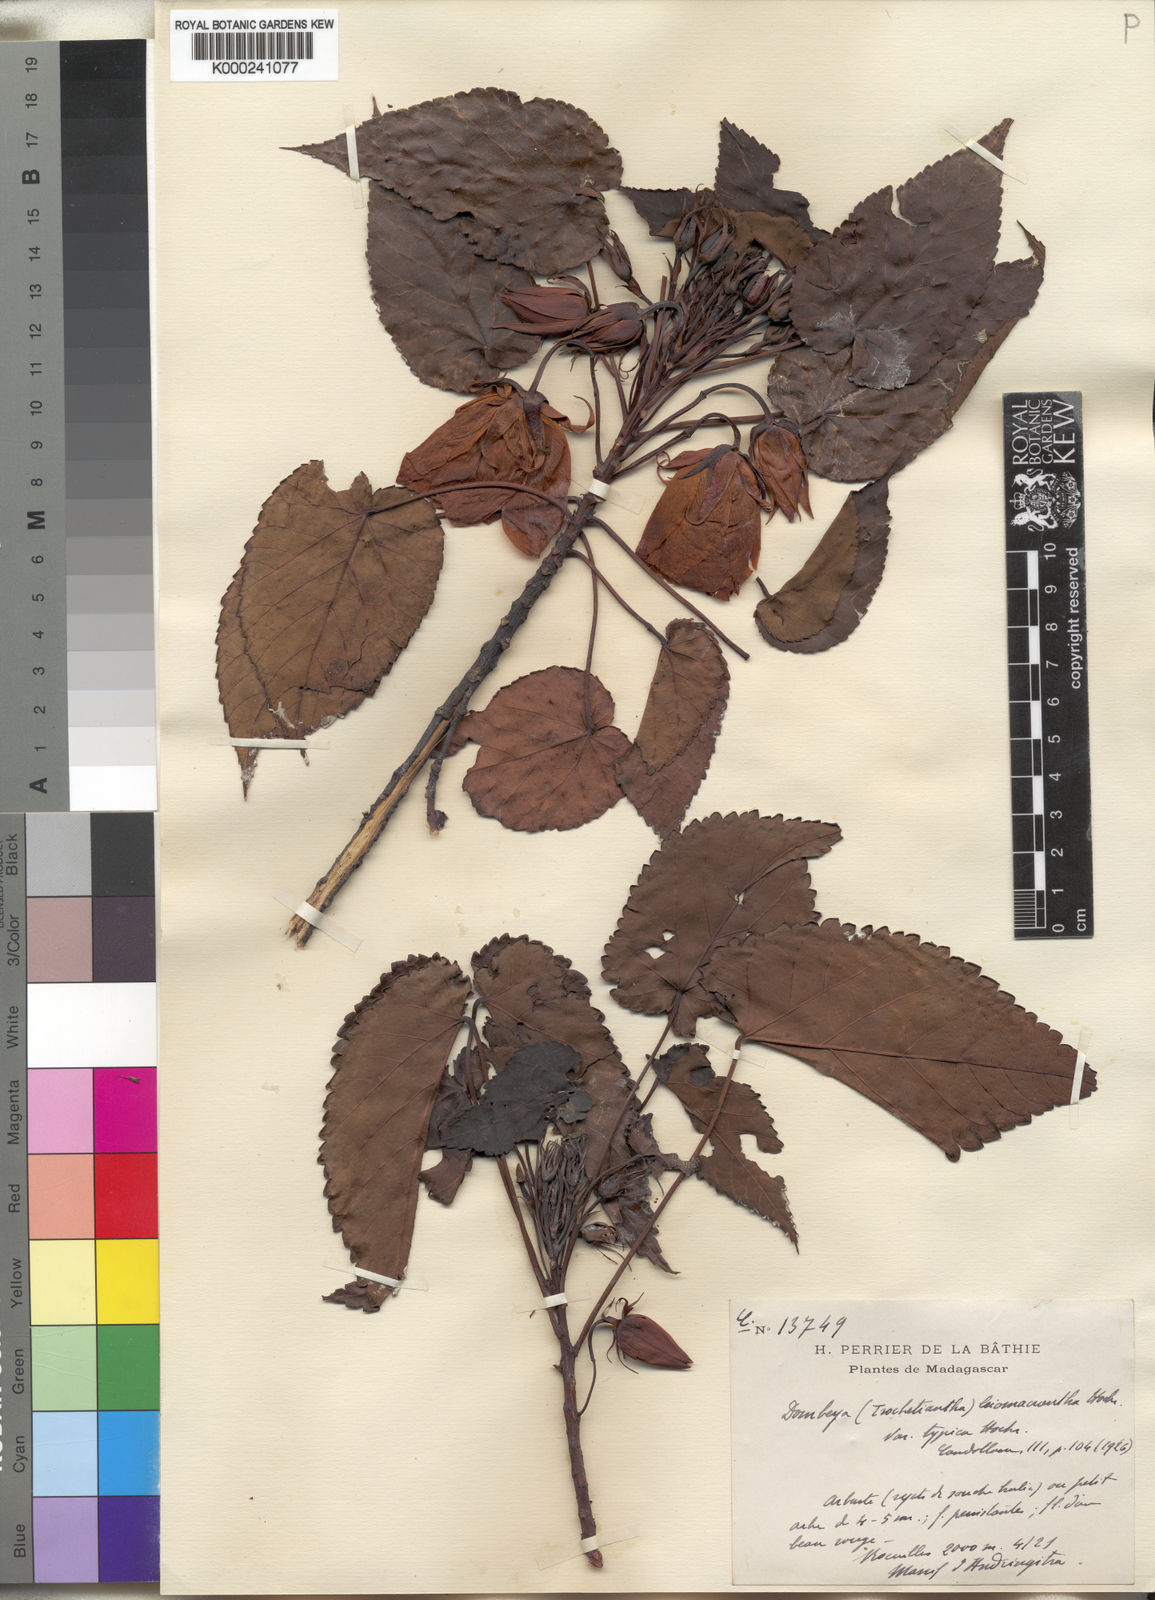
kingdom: Plantae
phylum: Tracheophyta
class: Magnoliopsida
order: Malvales
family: Malvaceae
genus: Andringitra
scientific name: Andringitra leiomacrantha
